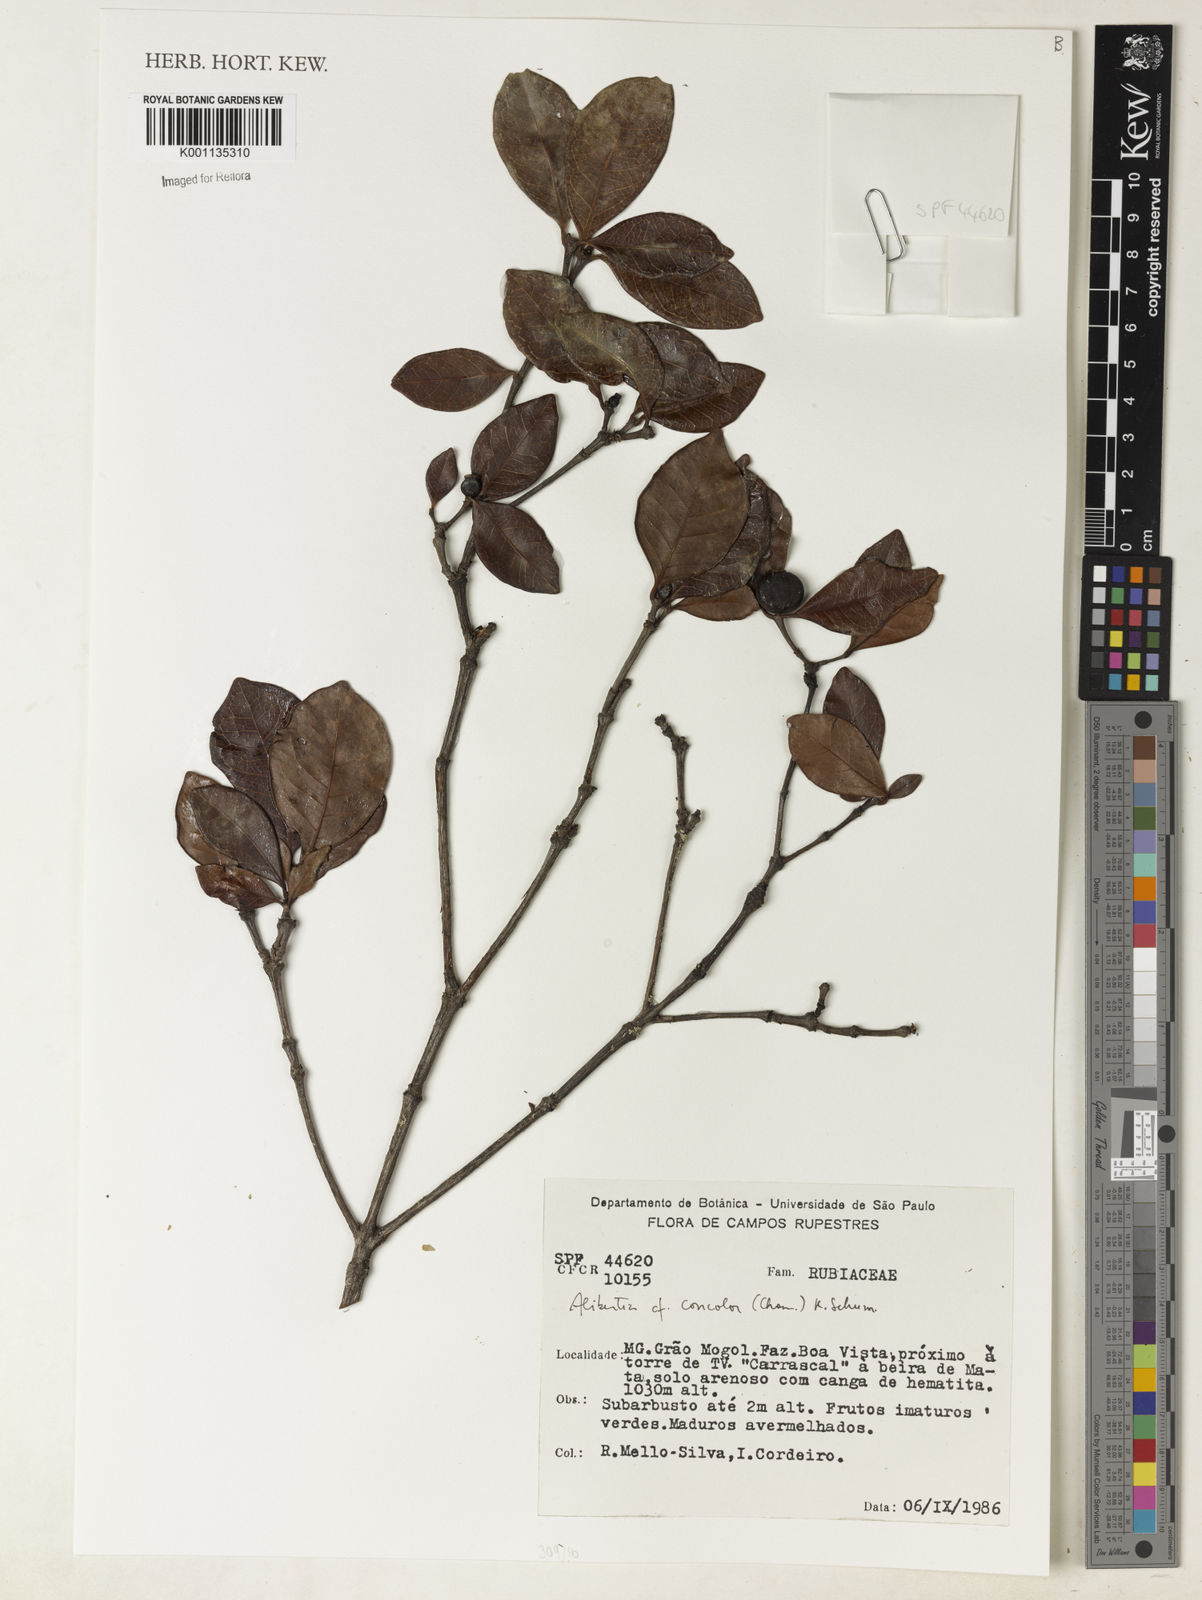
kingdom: Plantae
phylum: Tracheophyta
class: Magnoliopsida
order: Gentianales
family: Rubiaceae
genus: Cordiera
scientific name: Cordiera concolor
